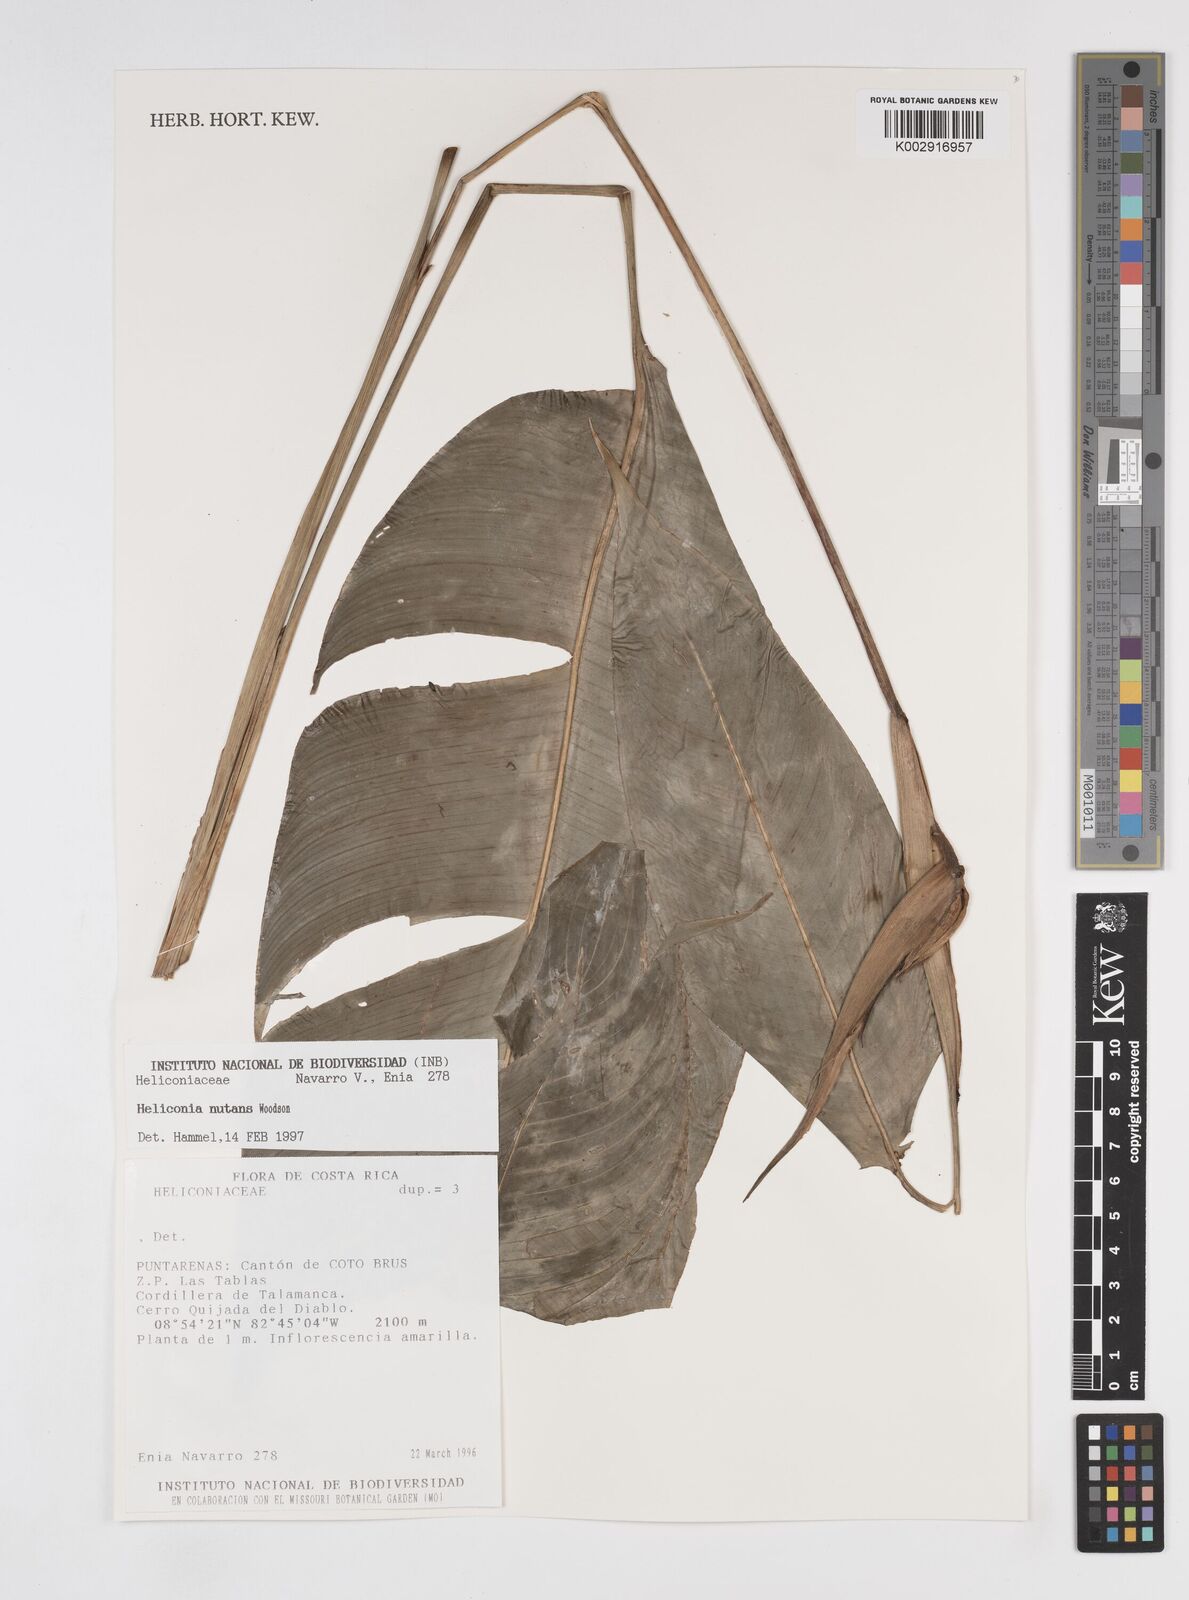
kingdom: Plantae
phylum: Tracheophyta
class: Liliopsida
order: Zingiberales
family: Heliconiaceae
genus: Heliconia
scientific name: Heliconia nutans
